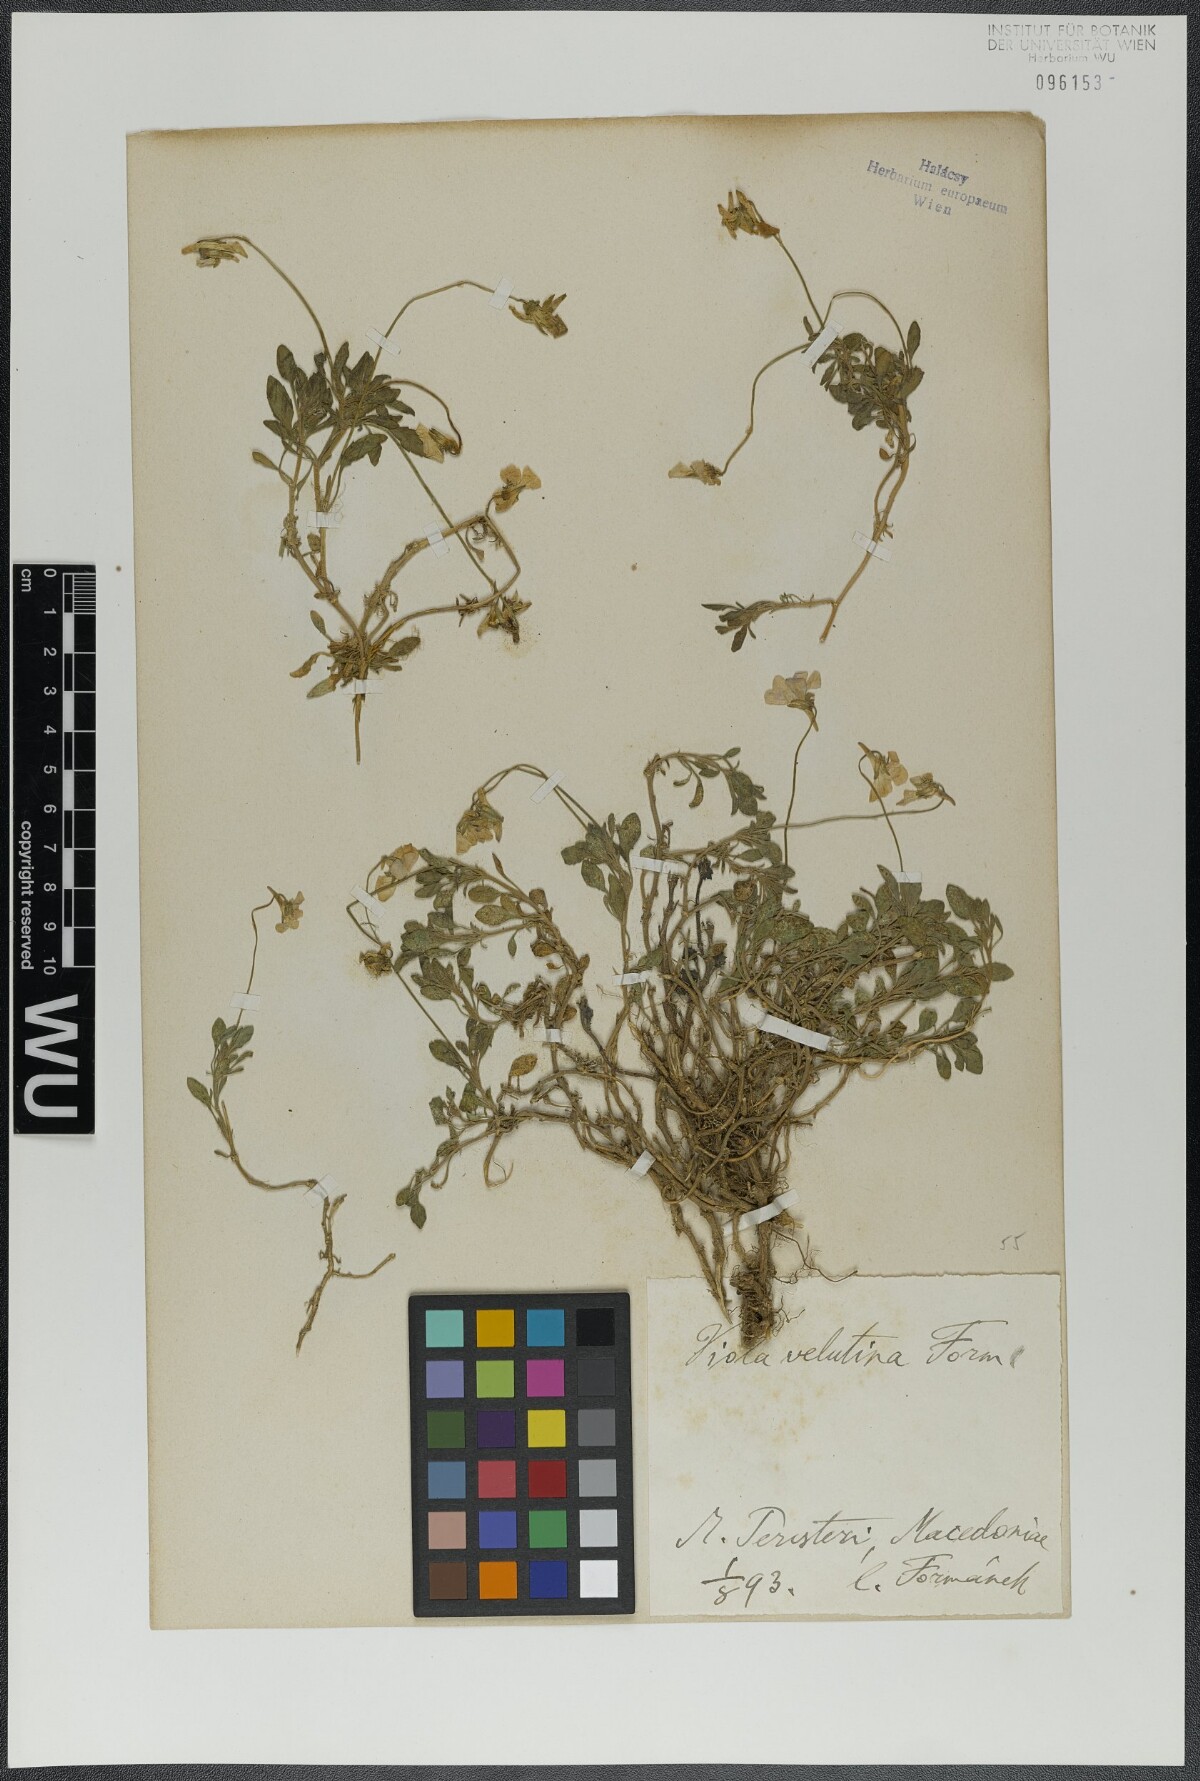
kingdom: Plantae
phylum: Tracheophyta
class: Magnoliopsida
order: Malpighiales
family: Violaceae
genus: Viola
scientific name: Viola velutina
